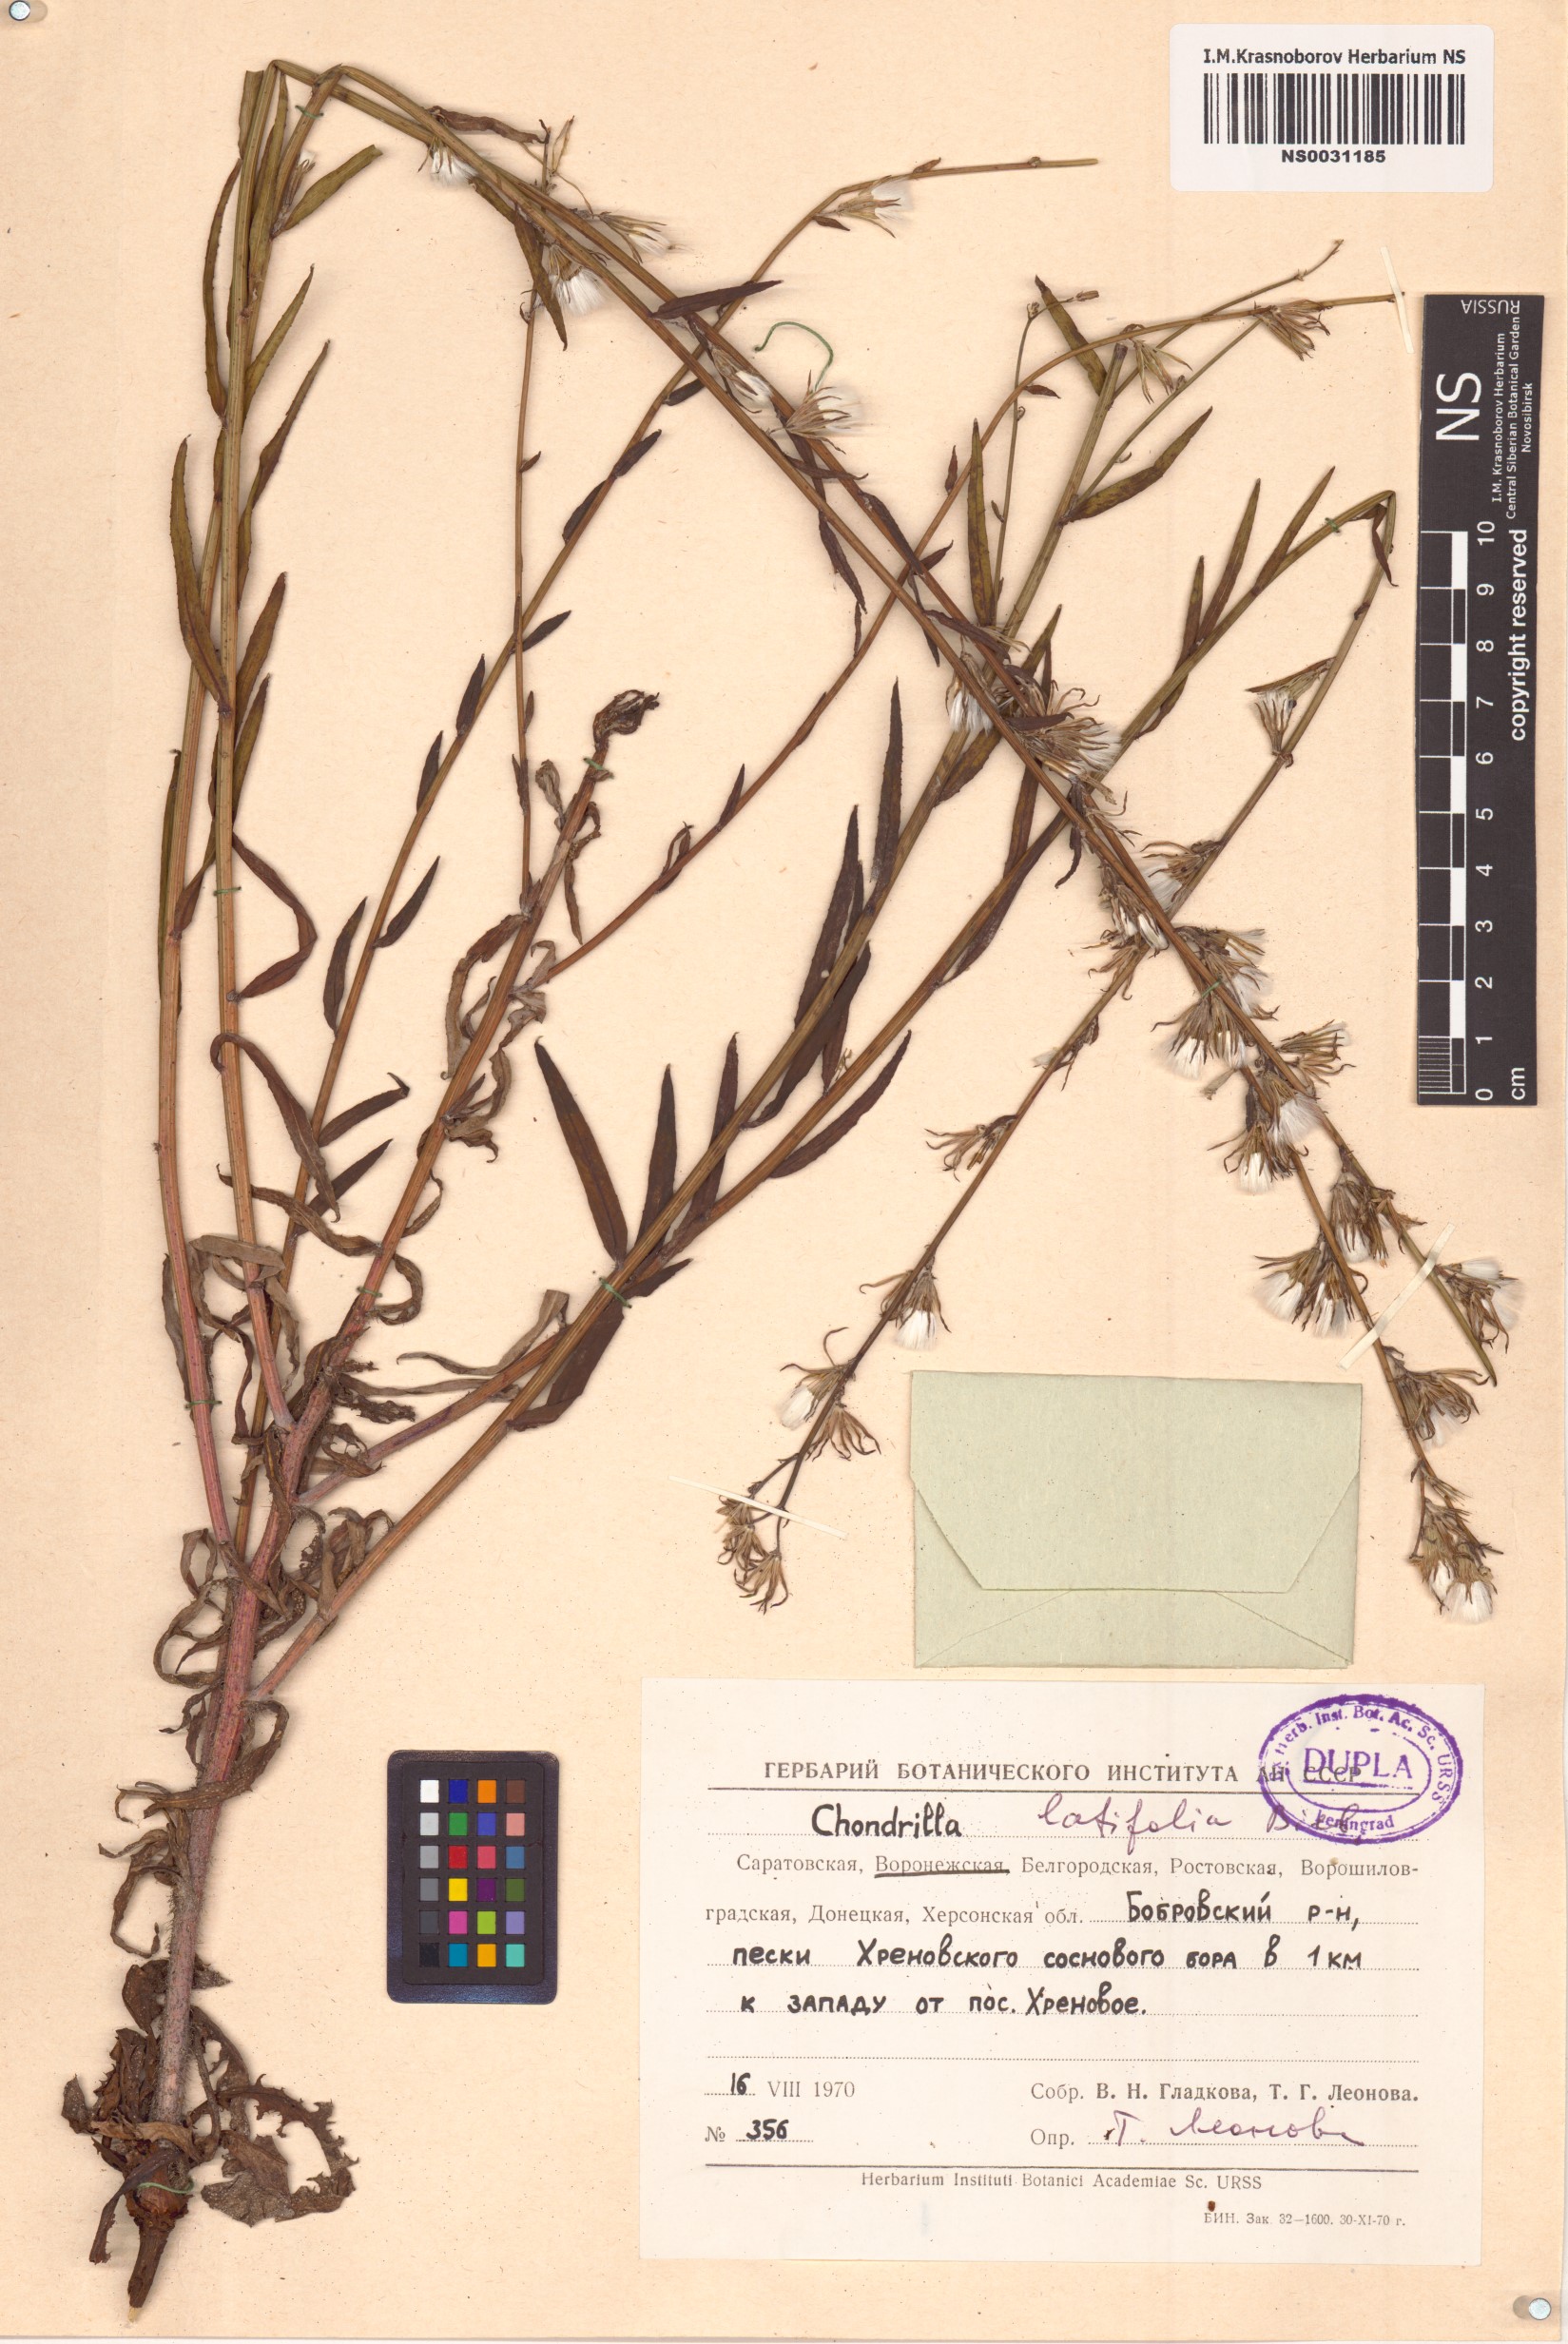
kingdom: Plantae
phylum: Tracheophyta
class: Magnoliopsida
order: Asterales
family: Asteraceae
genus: Chondrilla
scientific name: Chondrilla latifolia
